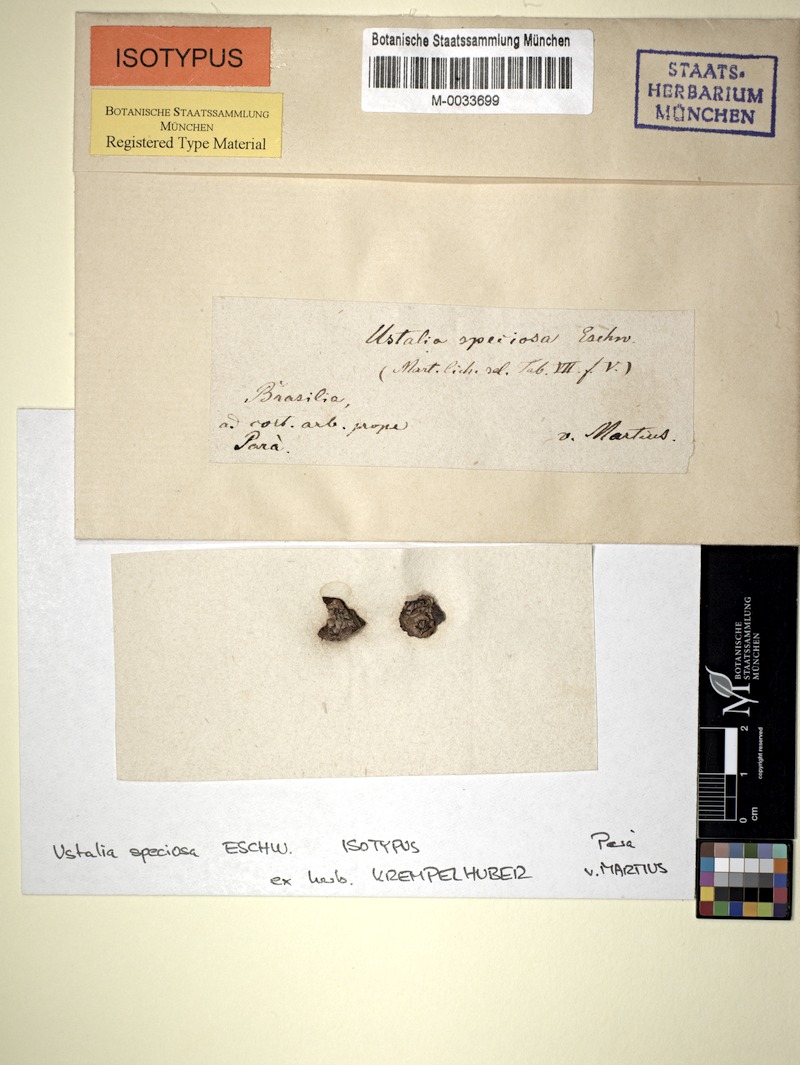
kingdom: Fungi
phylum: Ascomycota
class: Lecanoromycetes
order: Ostropales
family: Graphidaceae
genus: Phaeographis
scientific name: Phaeographis haematites
